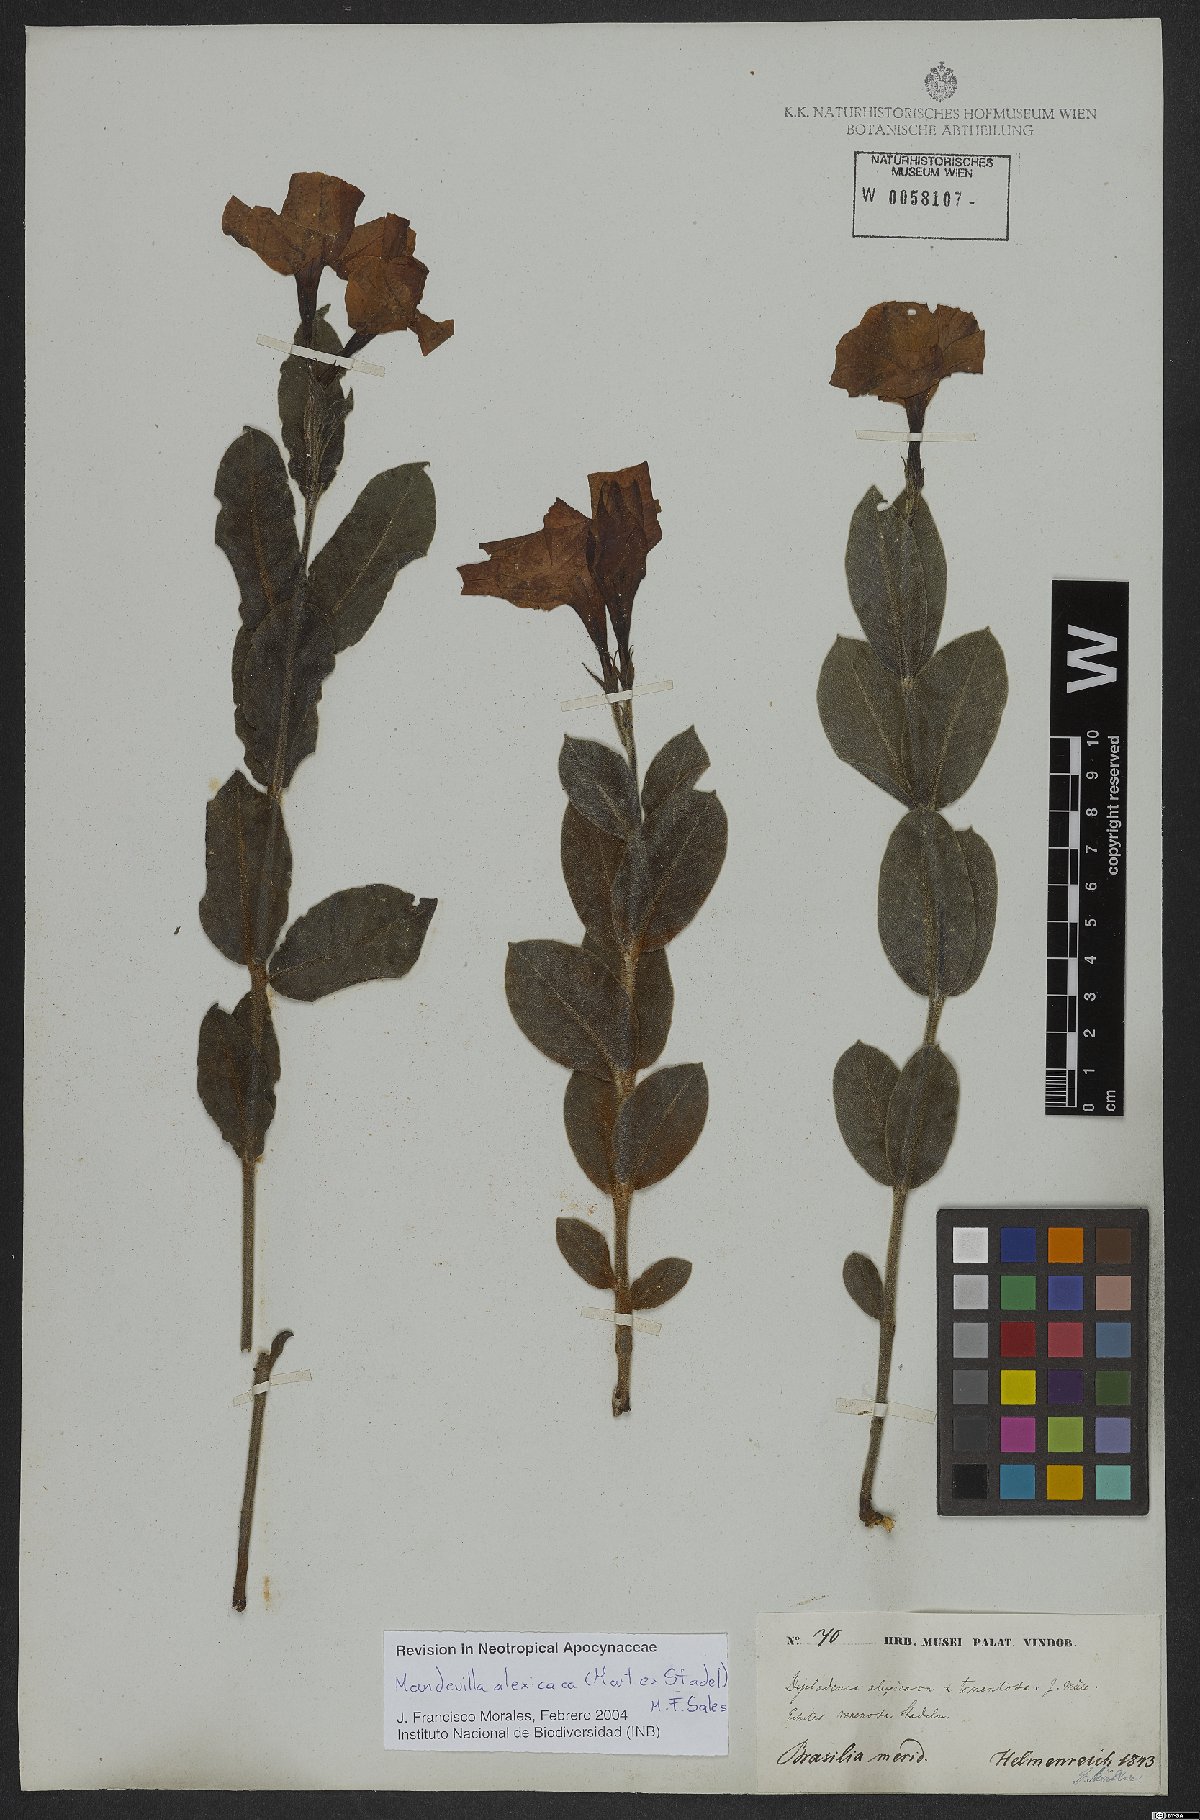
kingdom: Plantae
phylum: Tracheophyta
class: Magnoliopsida
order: Gentianales
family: Apocynaceae
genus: Mandevilla
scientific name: Mandevilla alexicaca
